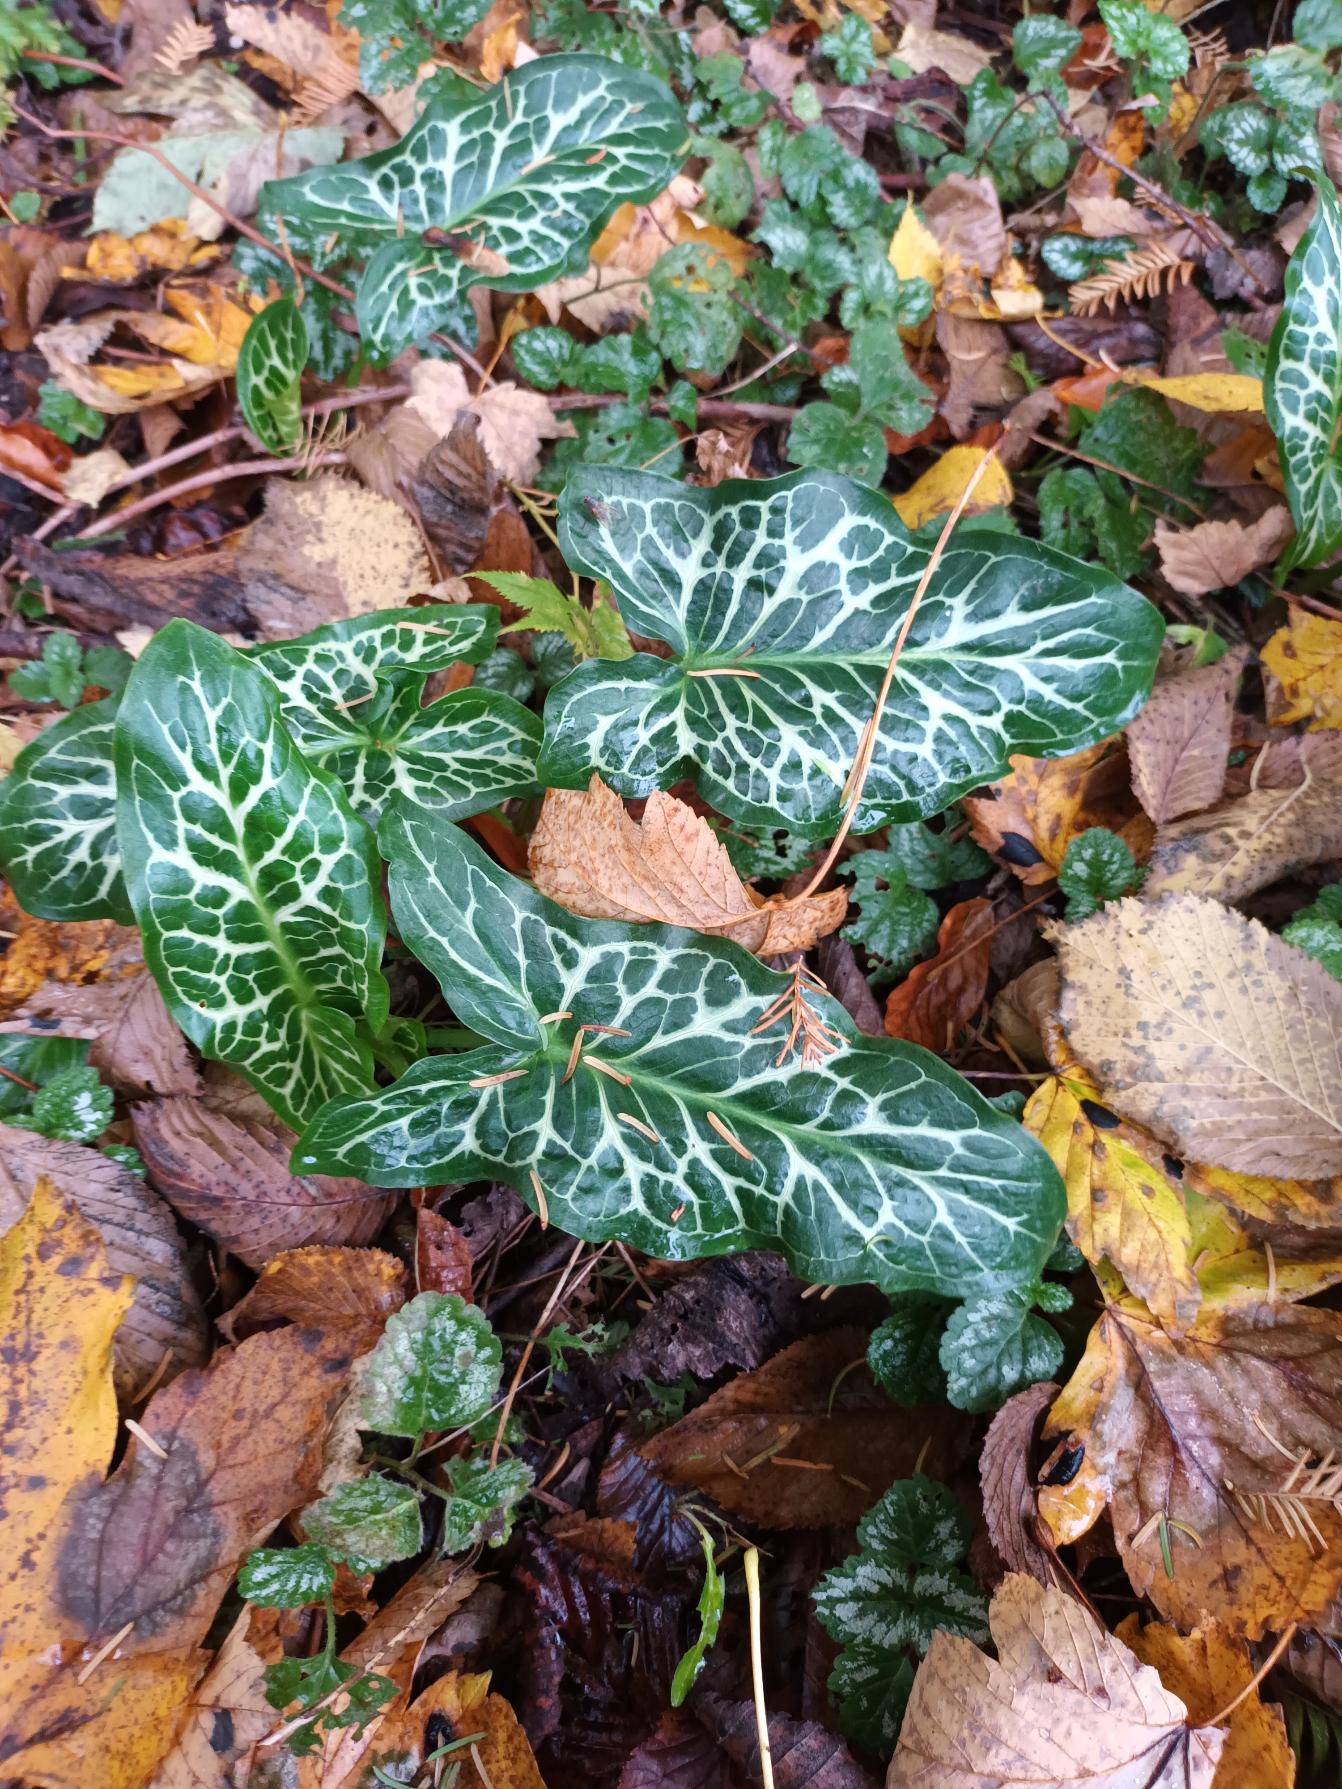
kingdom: Plantae
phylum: Tracheophyta
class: Liliopsida
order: Alismatales
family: Araceae
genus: Arum
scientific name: Arum italicum
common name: Italiensk arum
